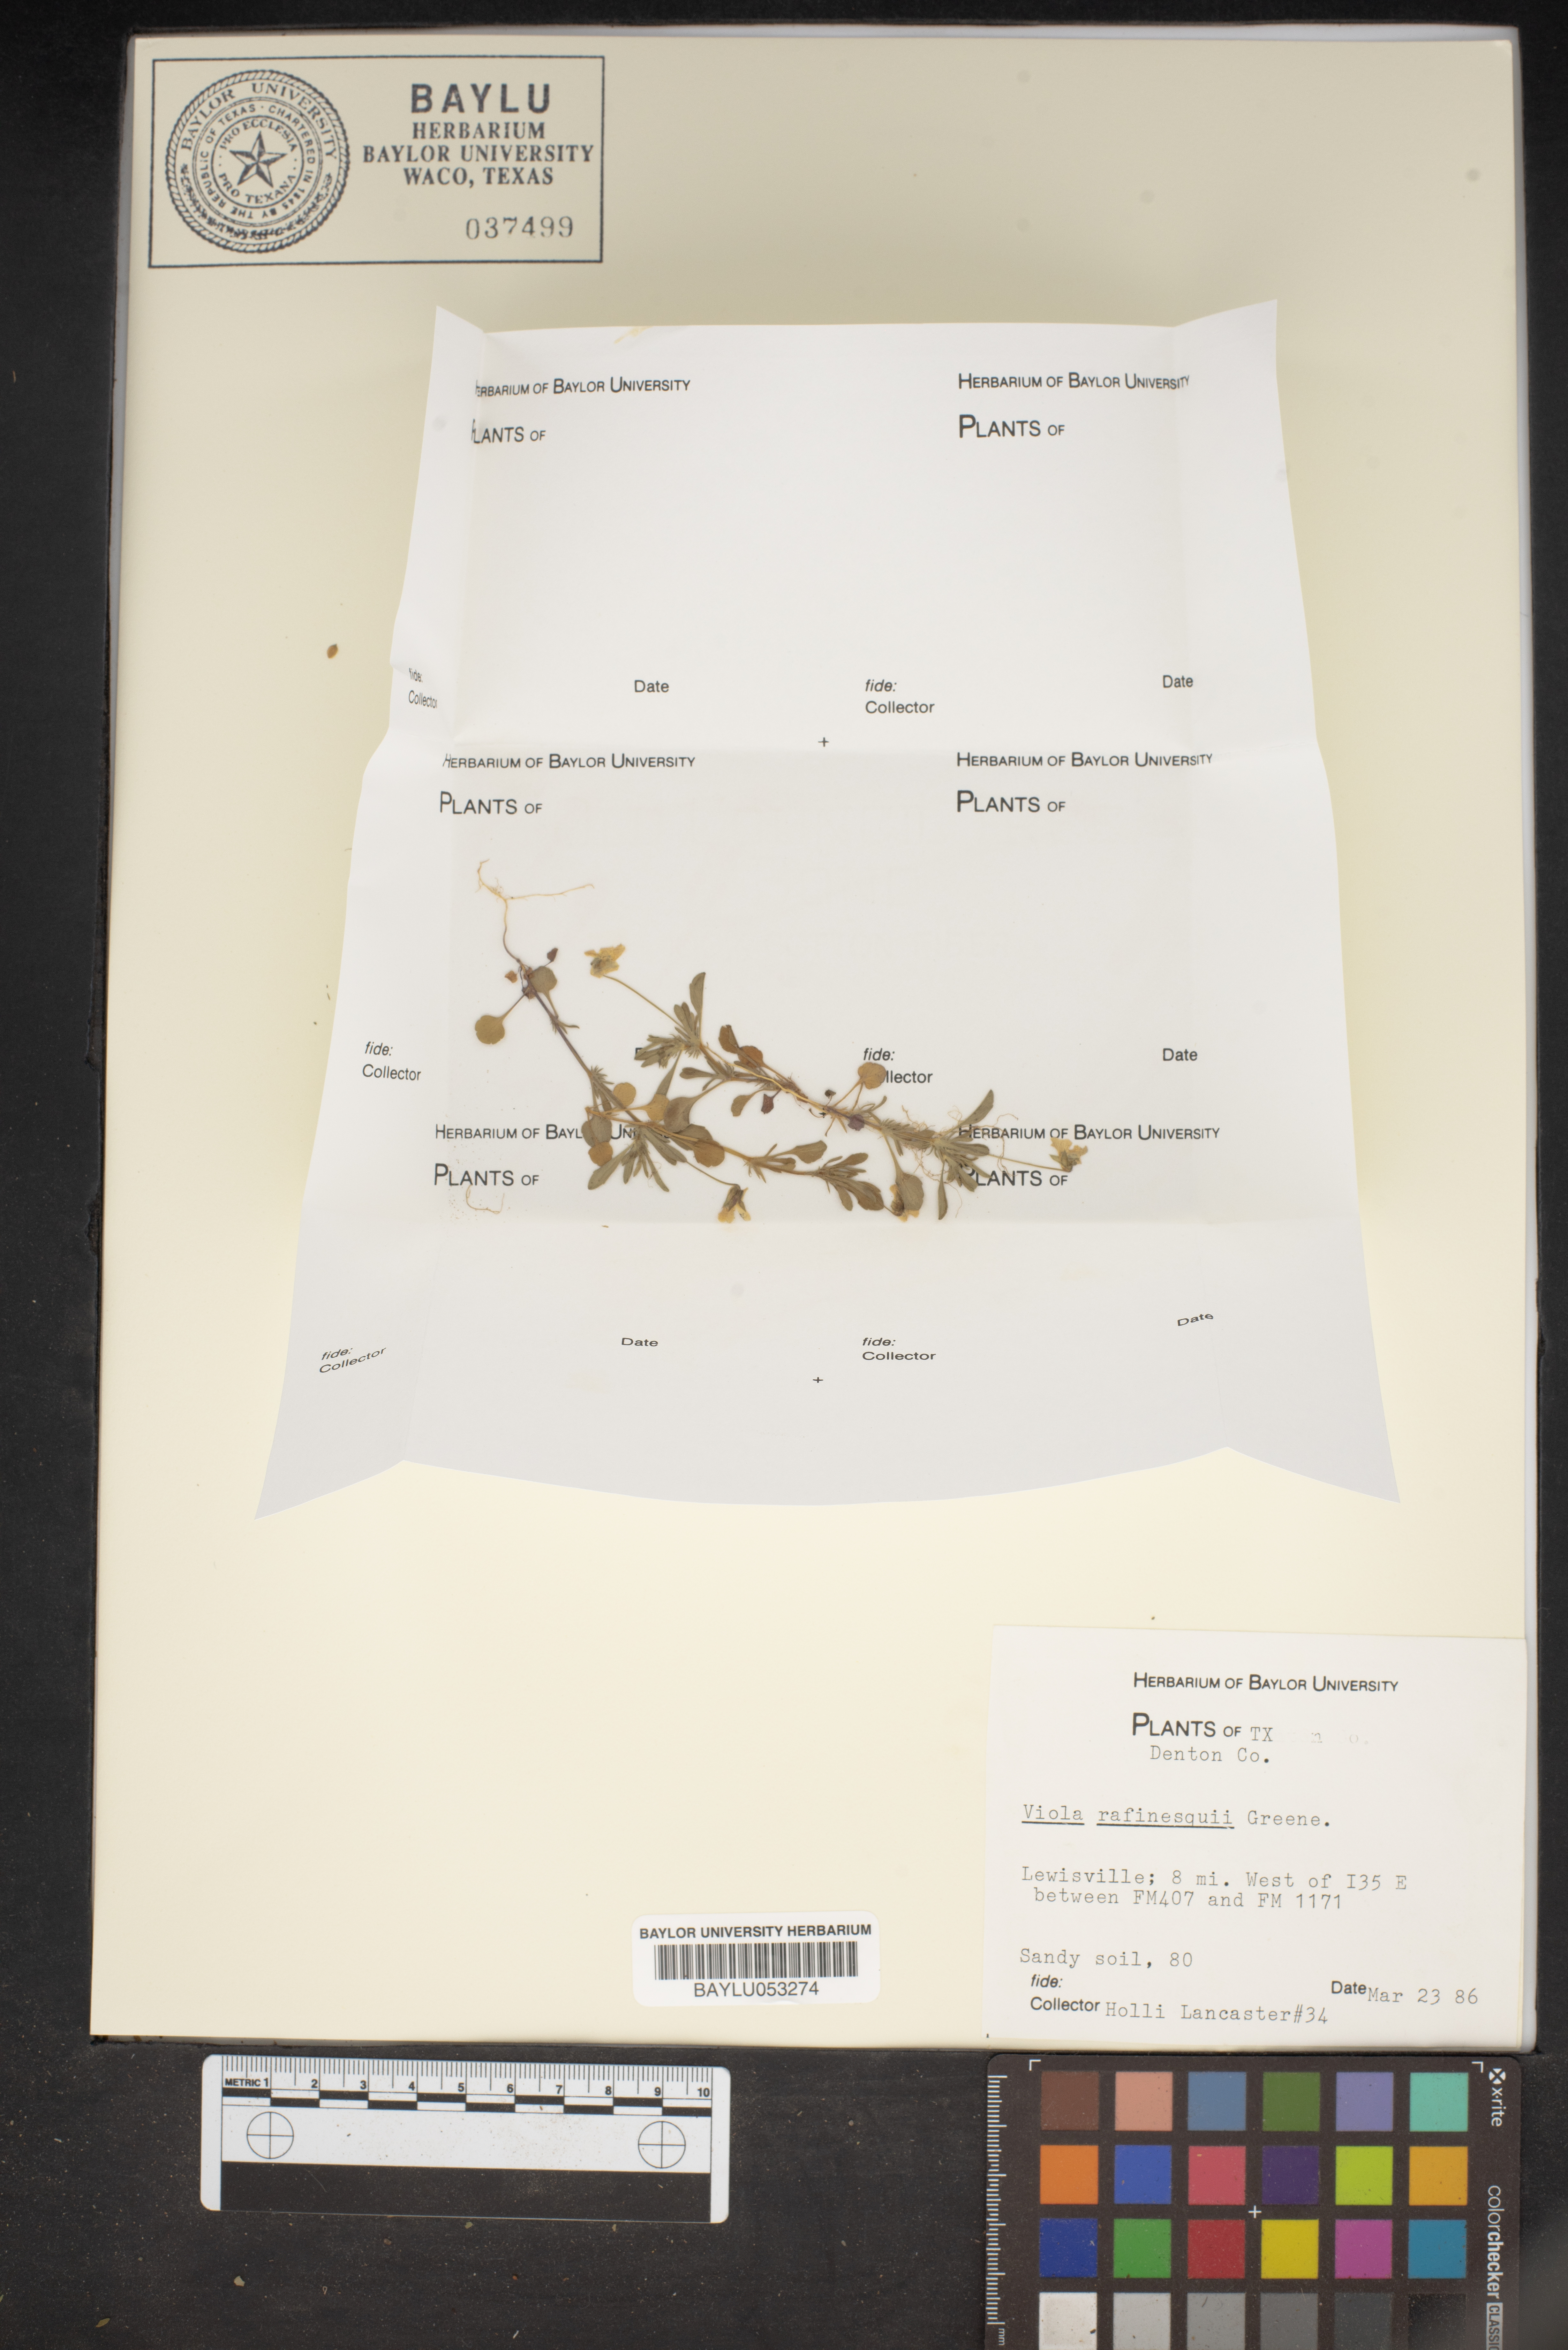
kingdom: Plantae
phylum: Tracheophyta
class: Magnoliopsida
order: Malpighiales
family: Violaceae
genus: Viola
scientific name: Viola rafinesquei
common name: American field pansy
